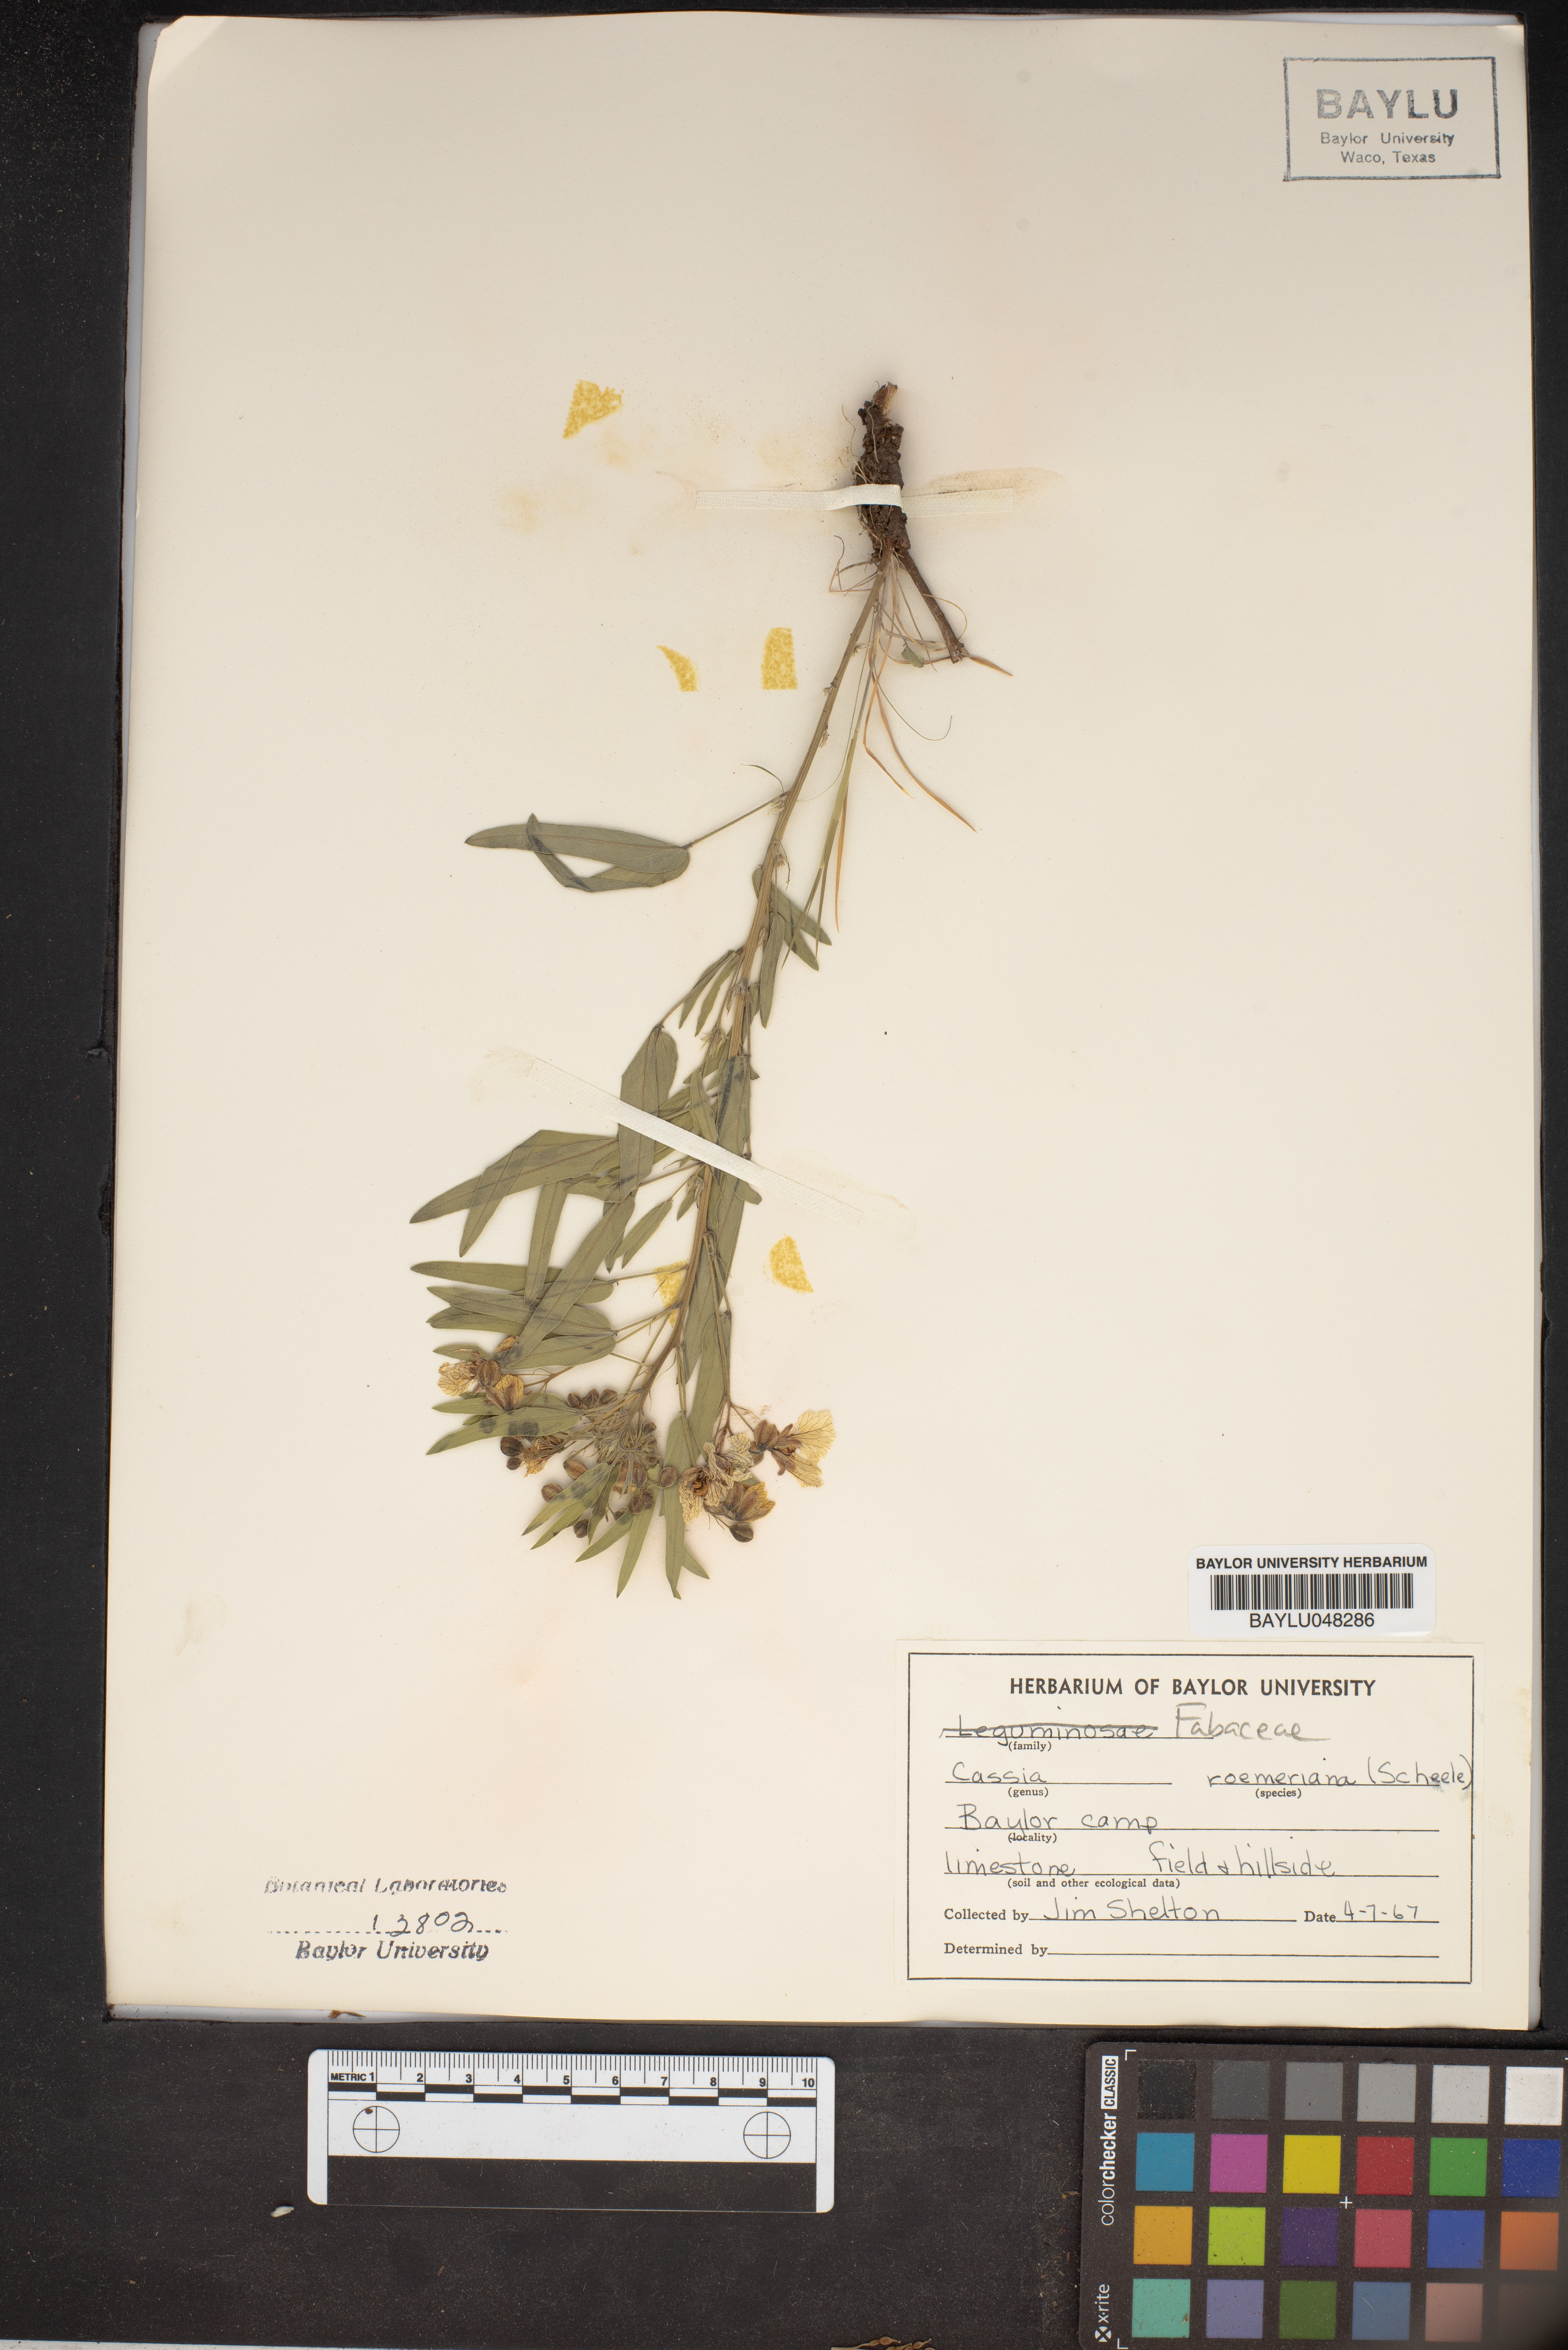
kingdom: Plantae
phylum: Tracheophyta
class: Magnoliopsida
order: Fabales
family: Fabaceae
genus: Senna
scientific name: Senna roemeriana
